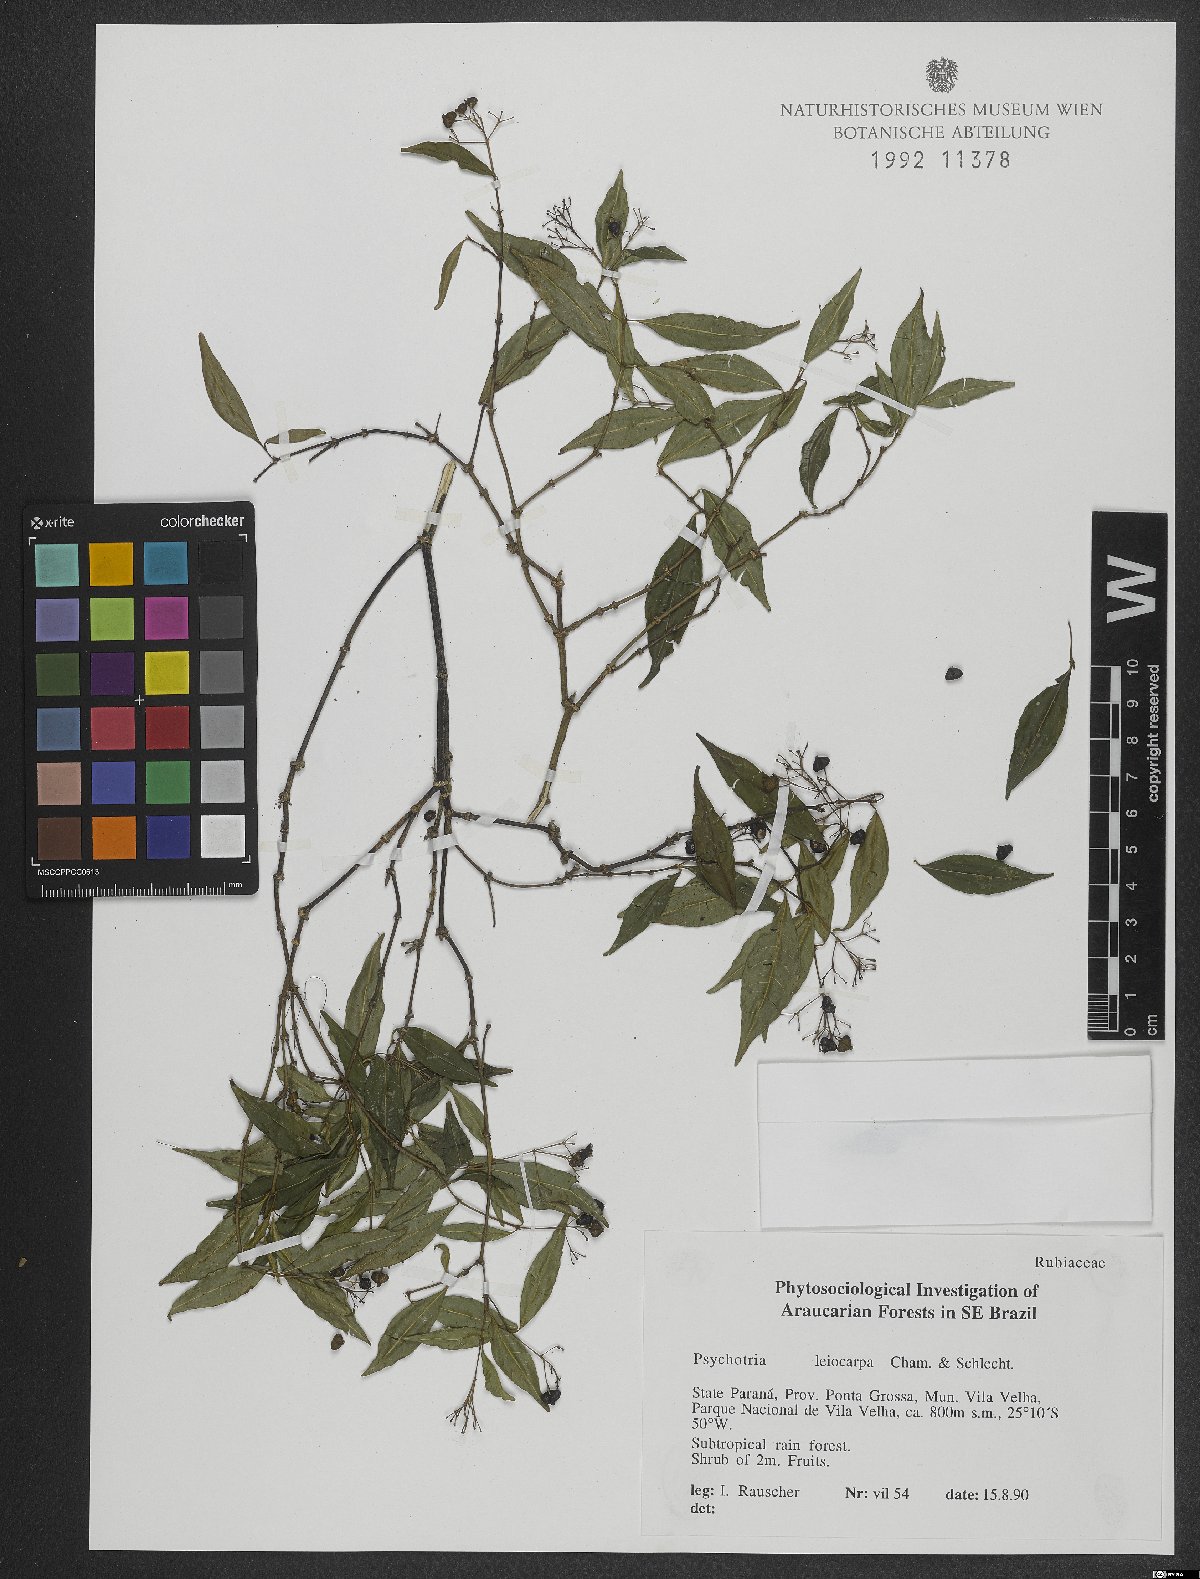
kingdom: Plantae
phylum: Tracheophyta
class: Magnoliopsida
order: Gentianales
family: Rubiaceae
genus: Psychotria
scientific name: Psychotria leiocarpa
